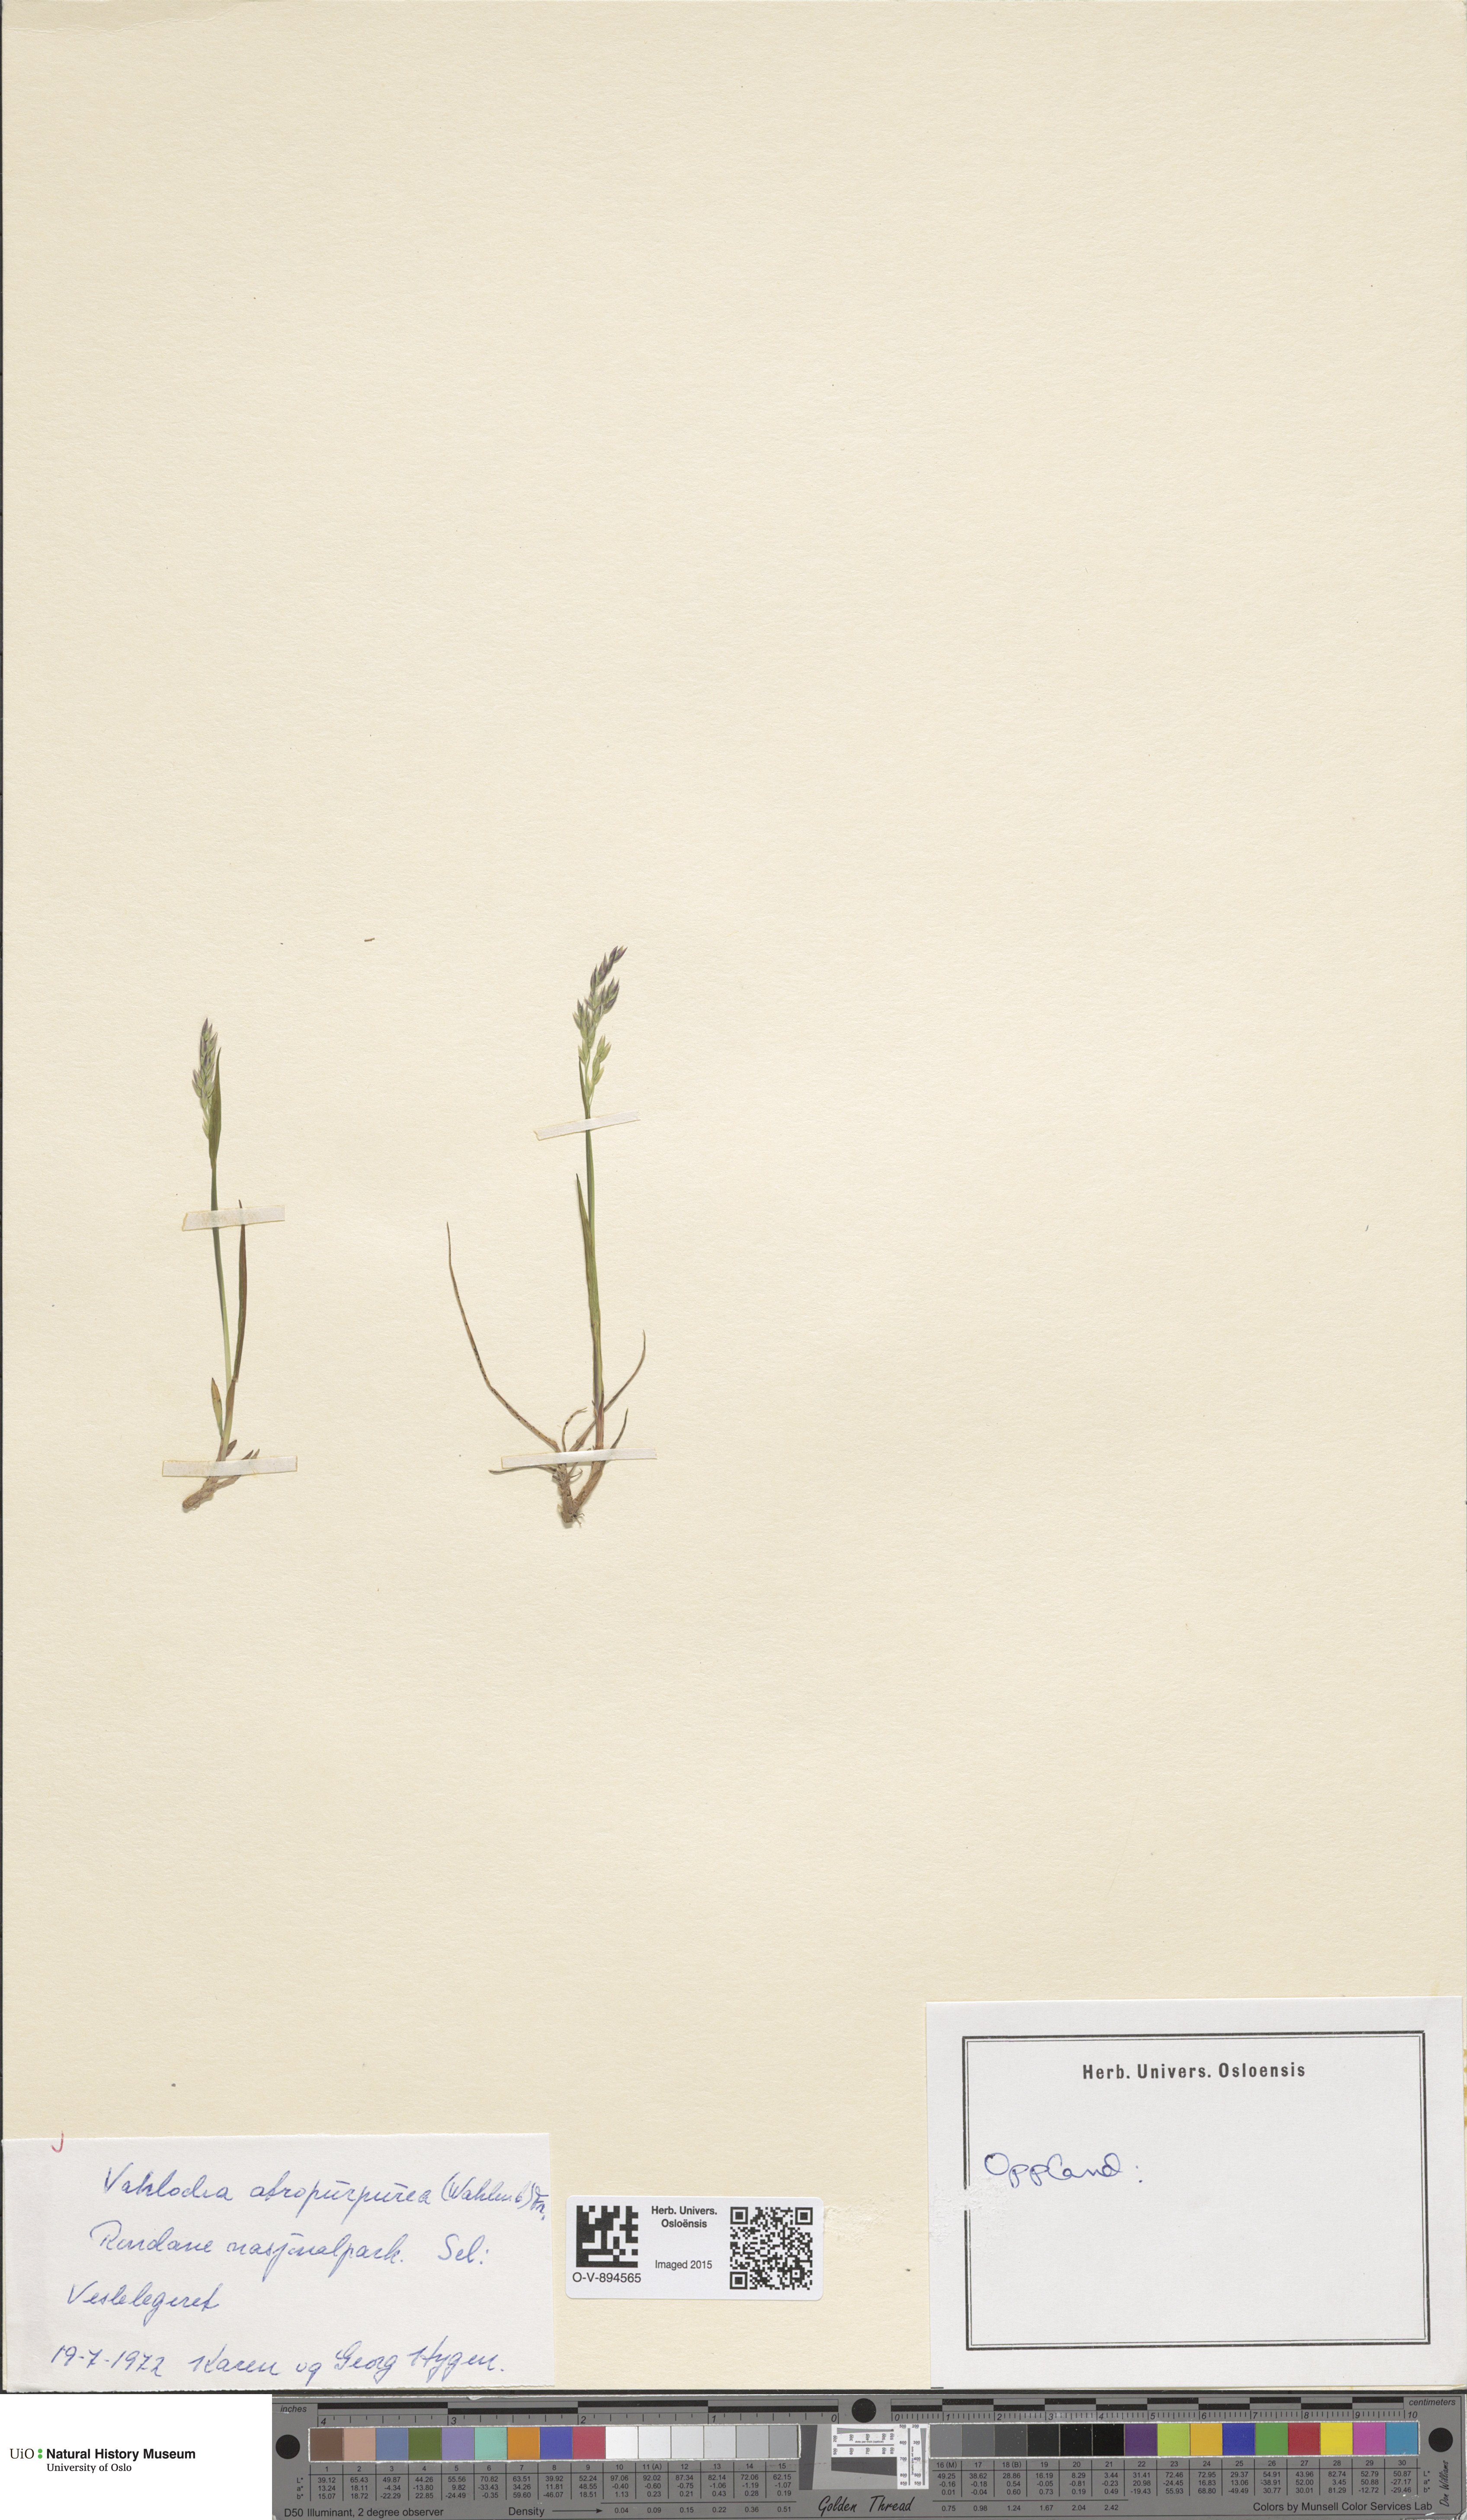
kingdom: Plantae
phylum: Tracheophyta
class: Liliopsida
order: Poales
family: Poaceae
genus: Vahlodea
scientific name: Vahlodea atropurpurea
